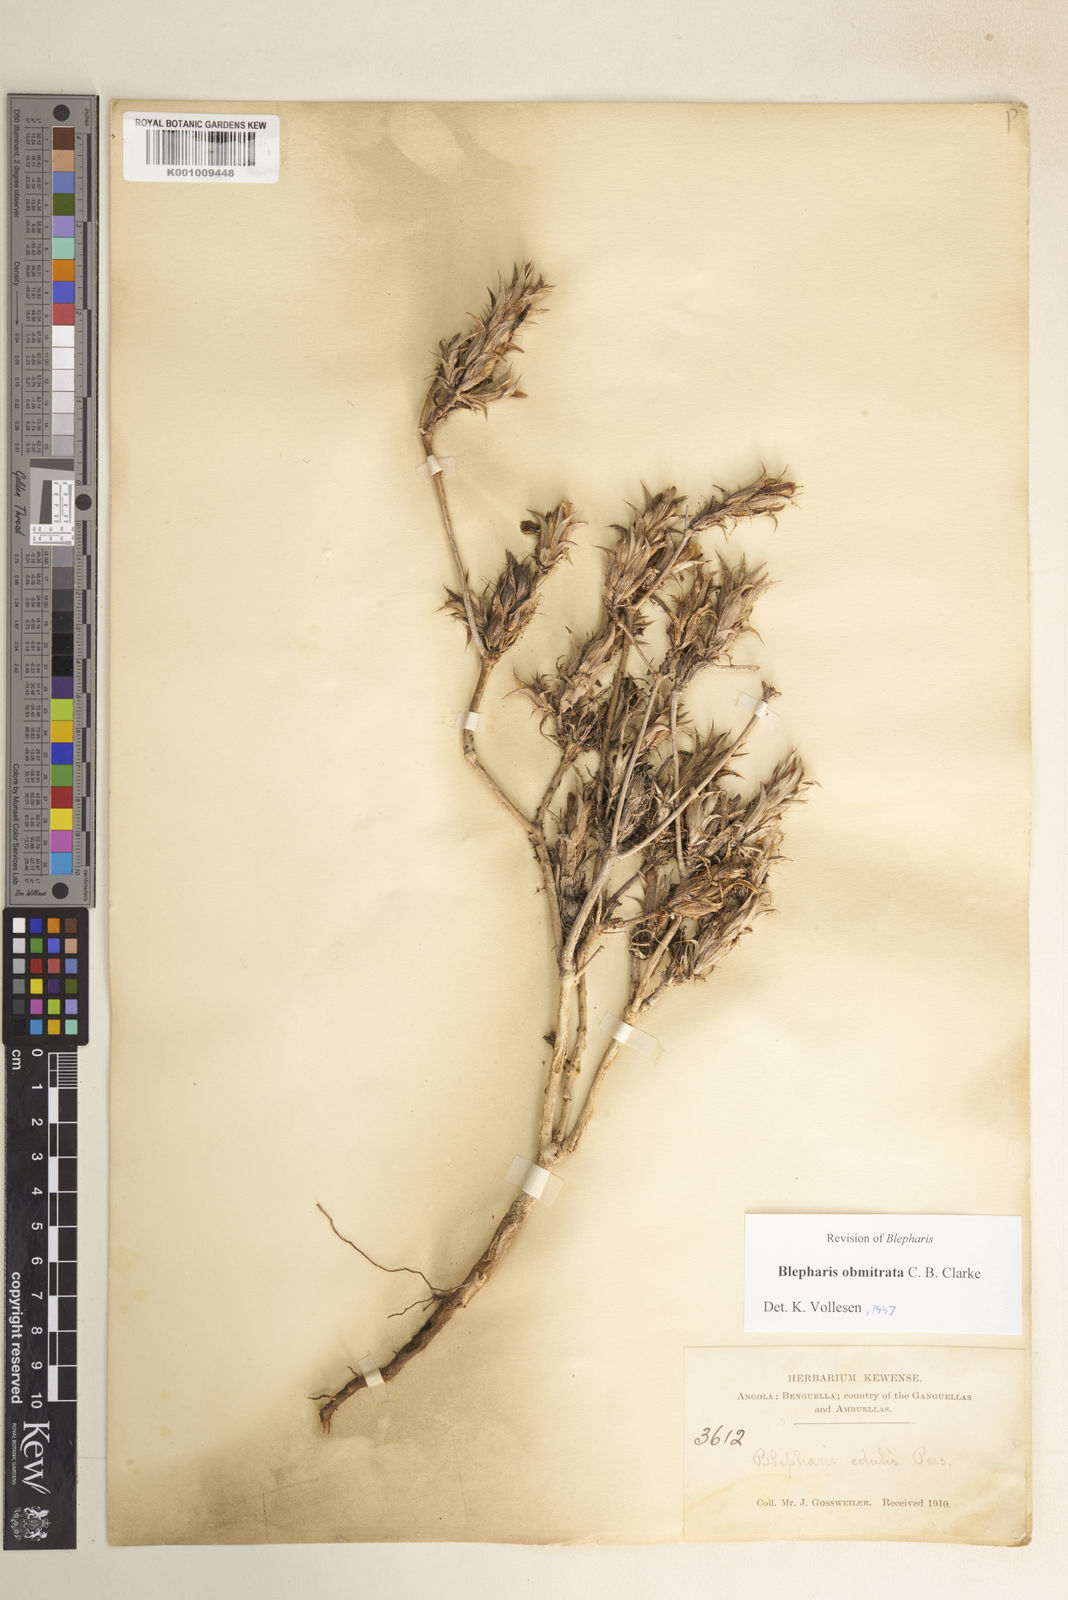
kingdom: Plantae
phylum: Tracheophyta
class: Magnoliopsida
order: Lamiales
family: Acanthaceae
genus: Blepharis
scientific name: Blepharis obmitrata
